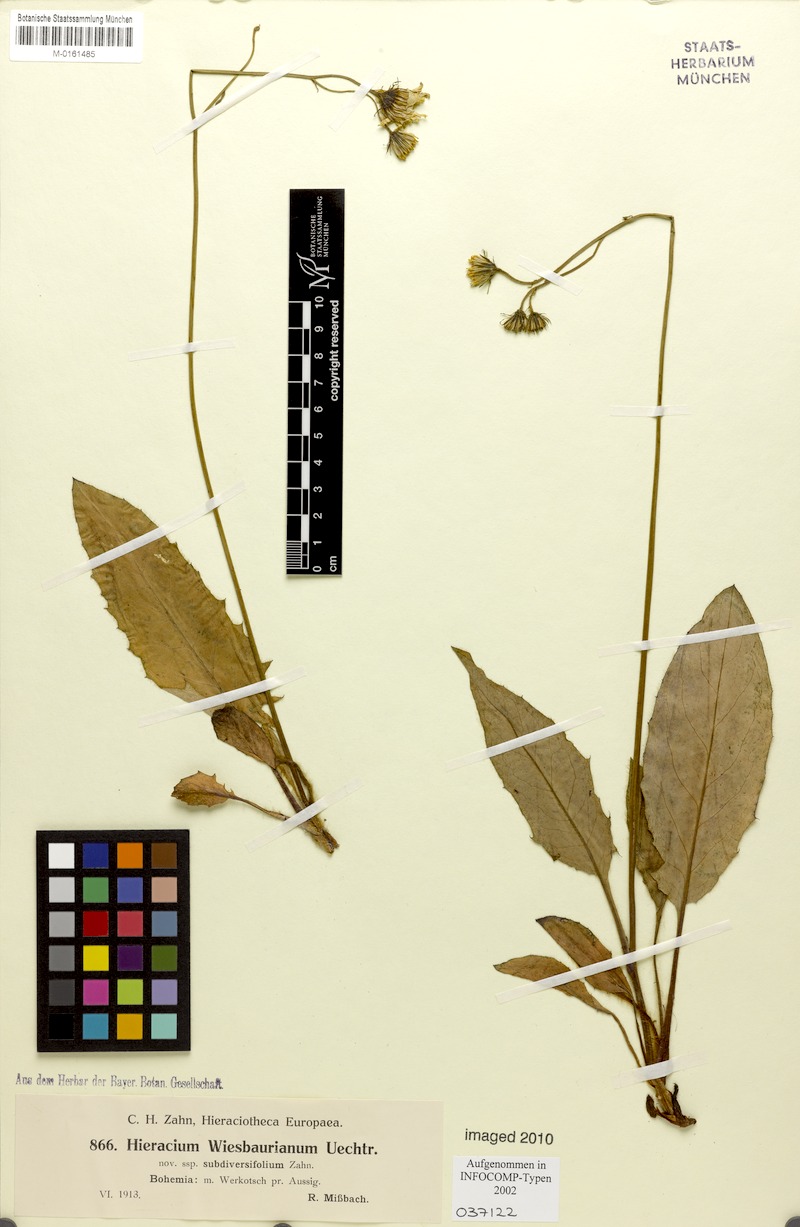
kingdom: Plantae
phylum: Tracheophyta
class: Magnoliopsida
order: Asterales
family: Asteraceae
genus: Hieracium
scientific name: Hieracium hypochoeroides
